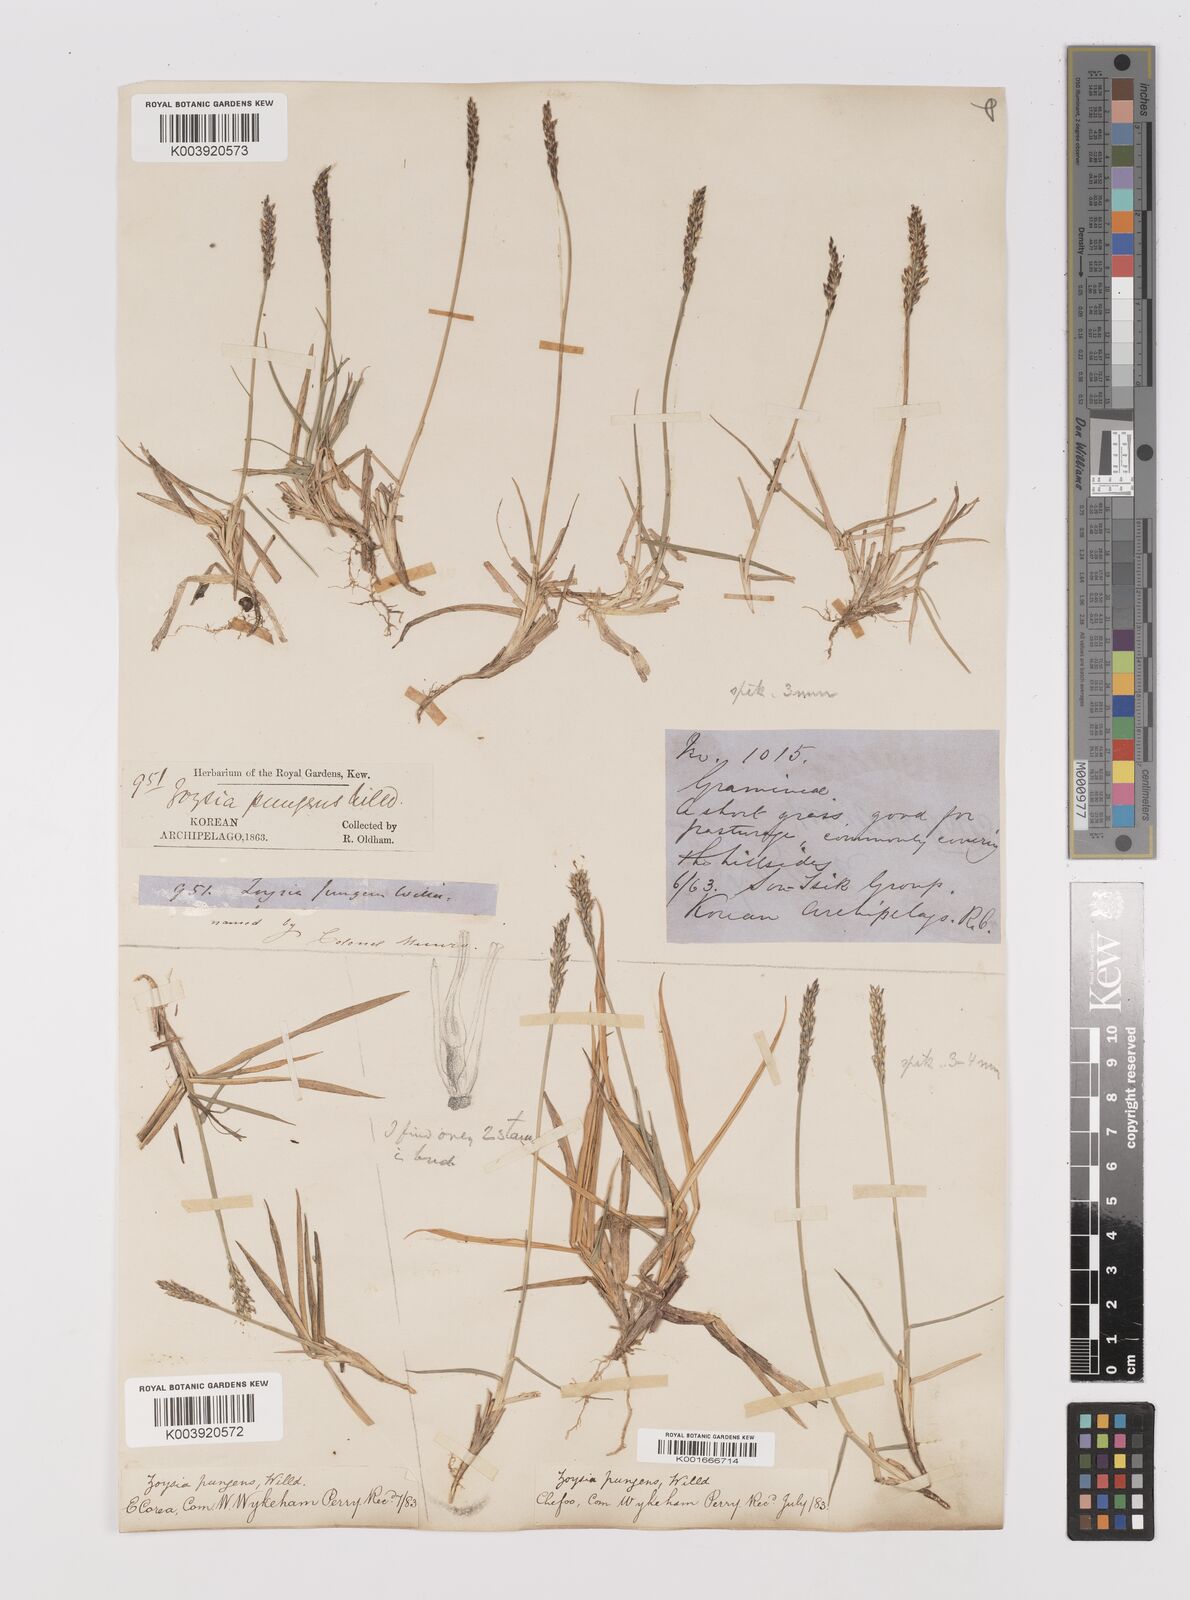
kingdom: Plantae
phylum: Tracheophyta
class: Liliopsida
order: Poales
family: Poaceae
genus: Zoysia
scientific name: Zoysia japonica
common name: Korean lawngrass
